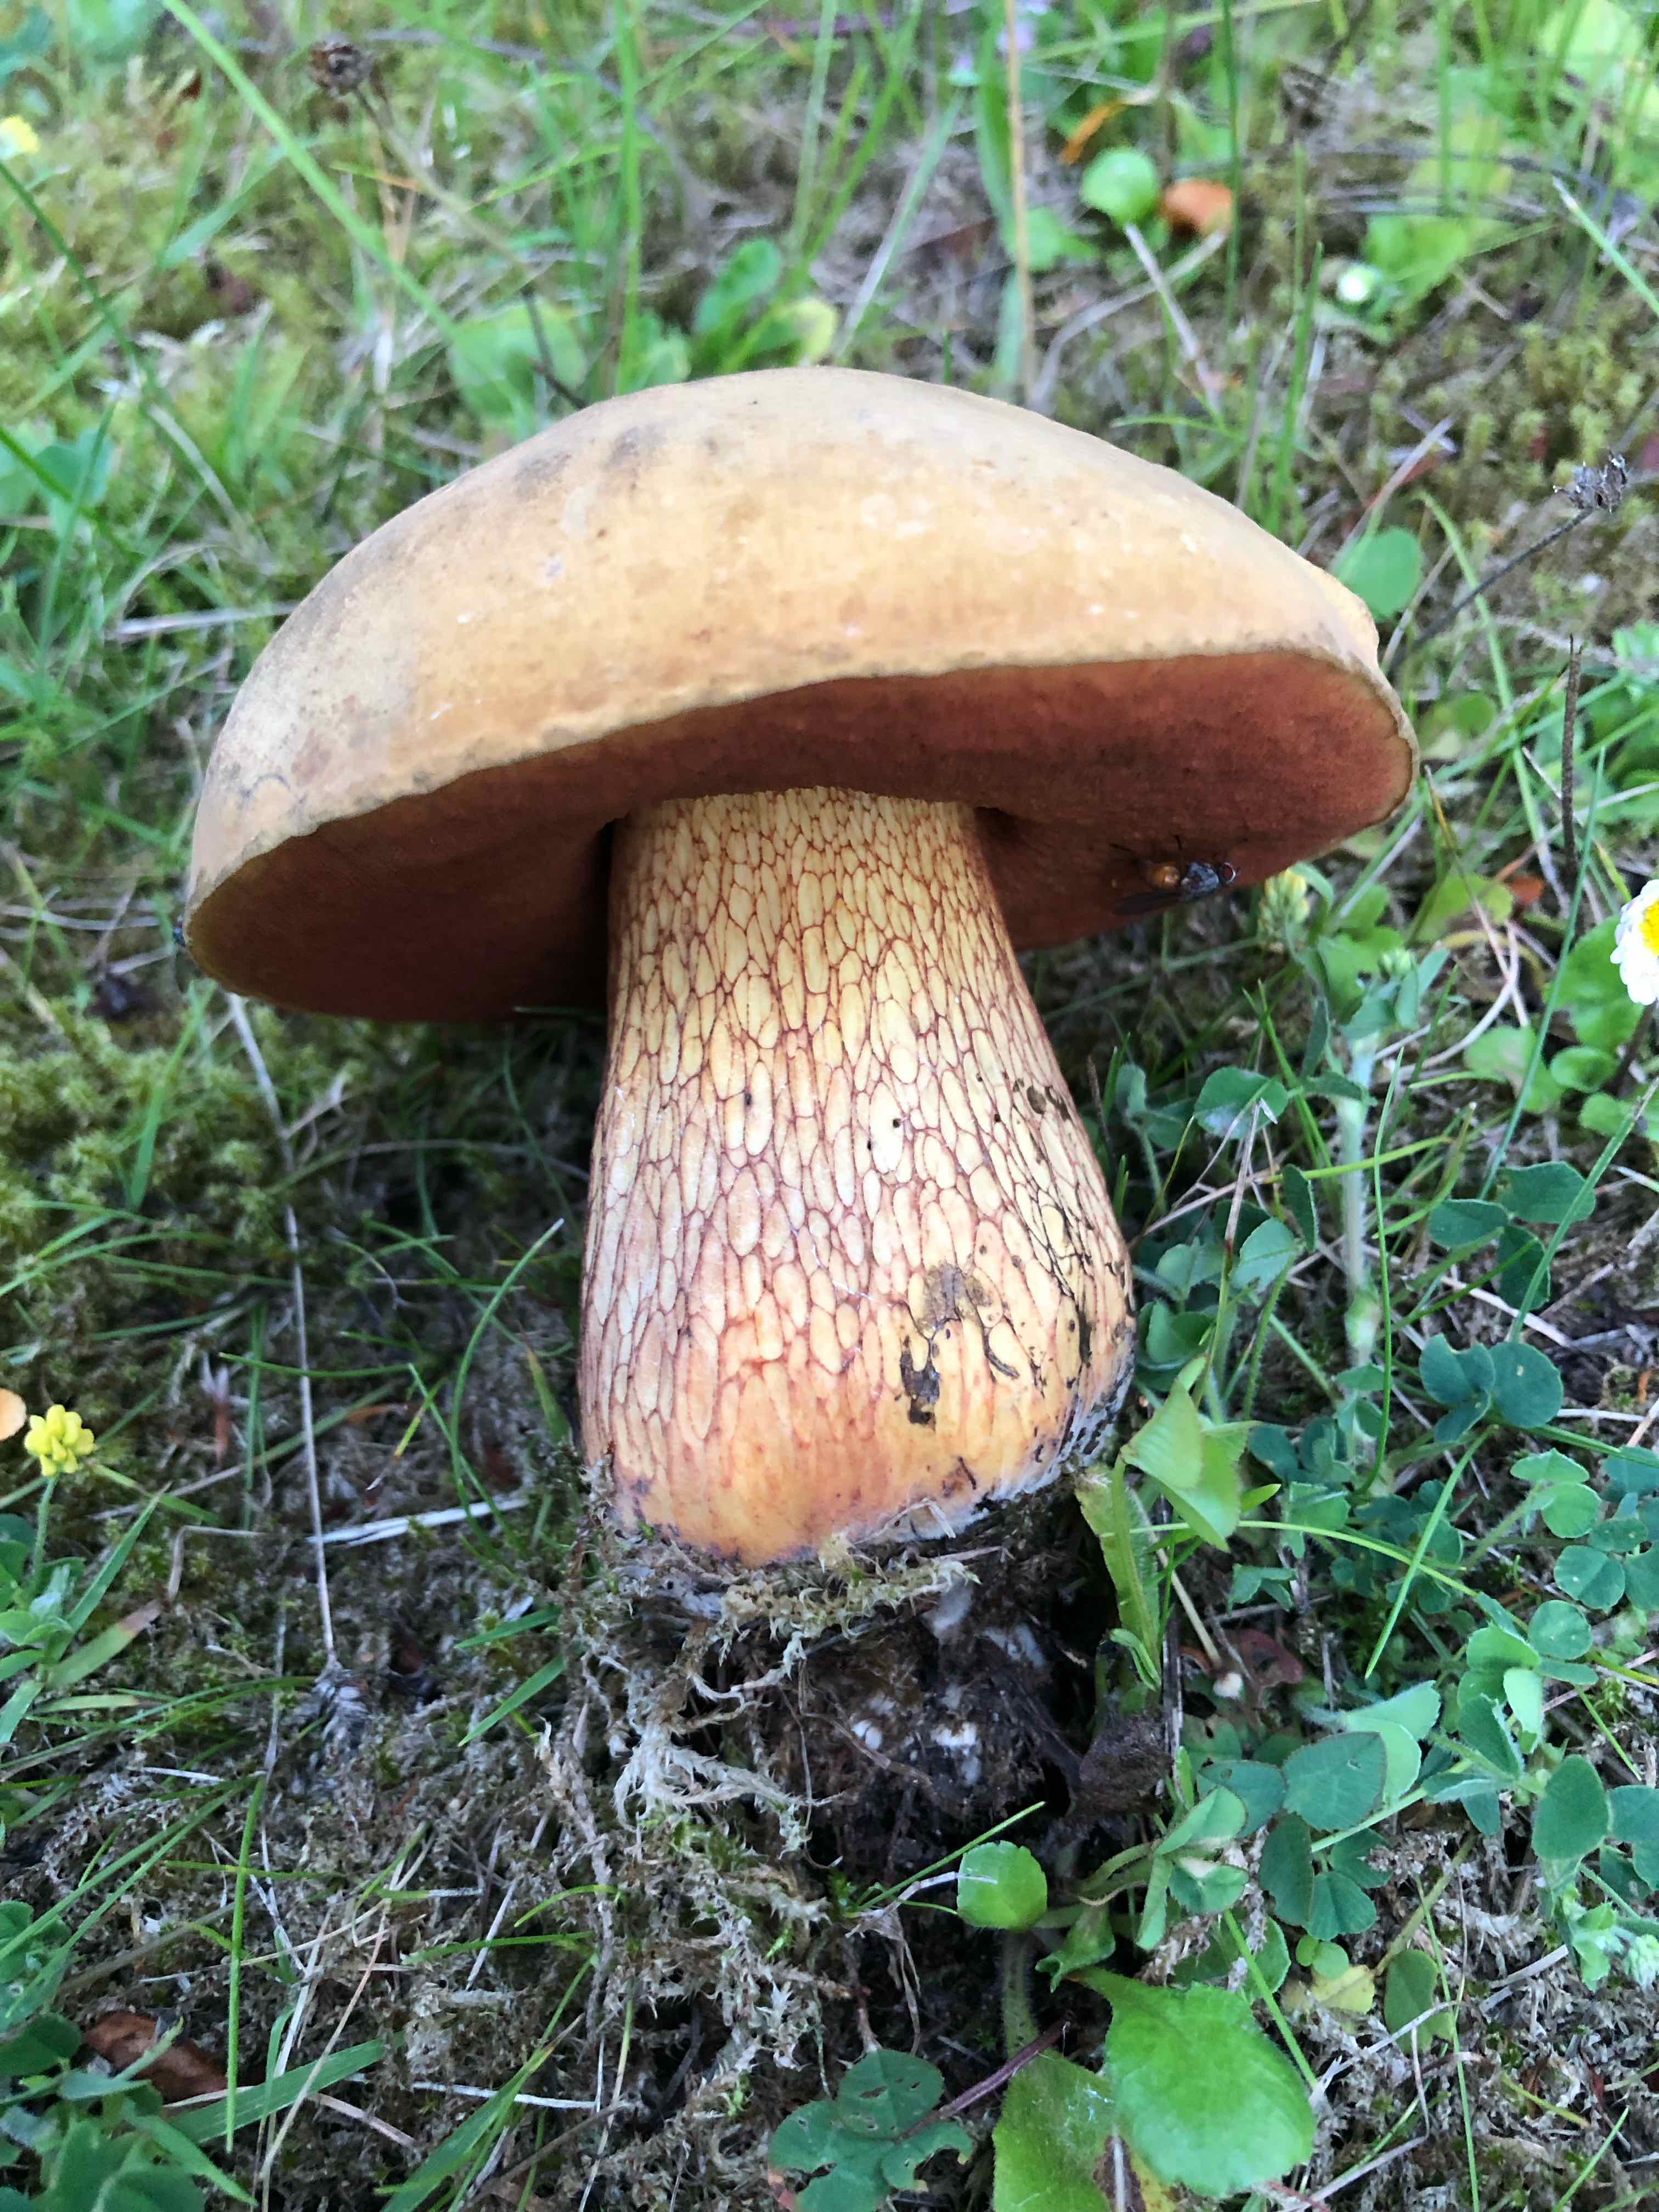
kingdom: Fungi
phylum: Basidiomycota
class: Agaricomycetes
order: Boletales
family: Boletaceae
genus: Suillellus
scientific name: Suillellus luridus
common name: netstokket indigorørhat
